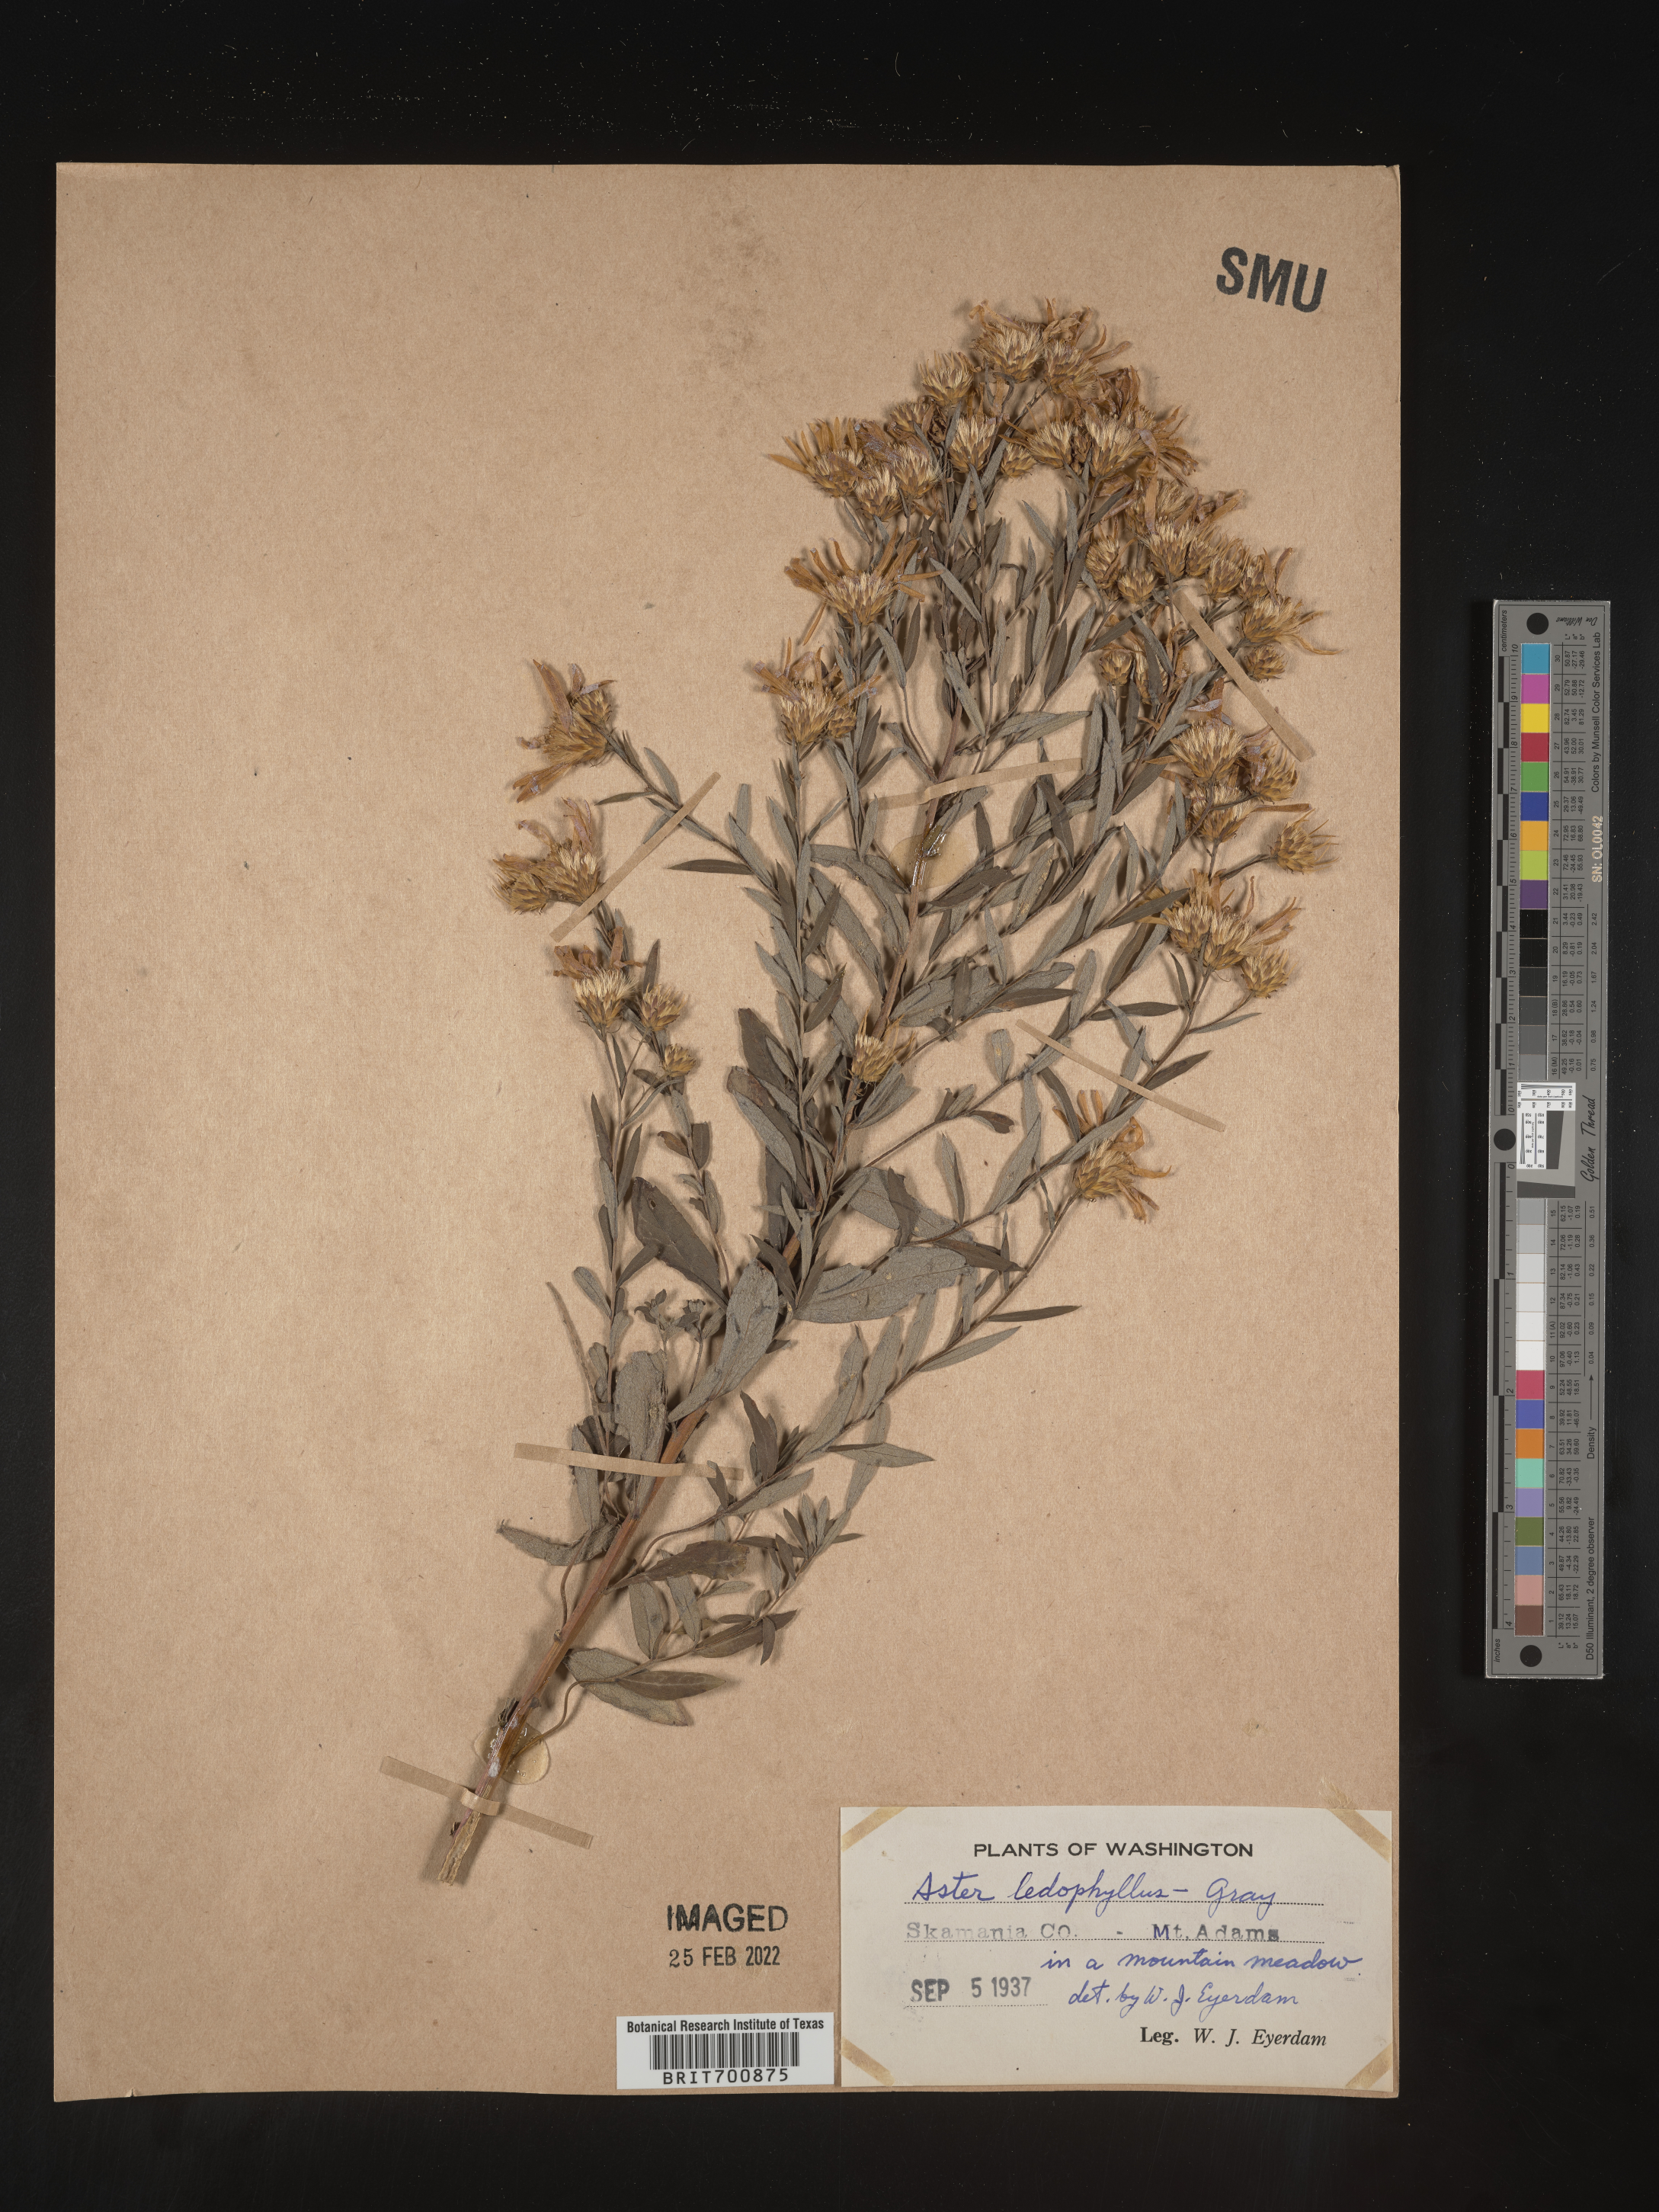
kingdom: Plantae
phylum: Tracheophyta
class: Magnoliopsida
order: Asterales
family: Asteraceae
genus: Eucephalus
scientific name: Eucephalus ledophyllus
